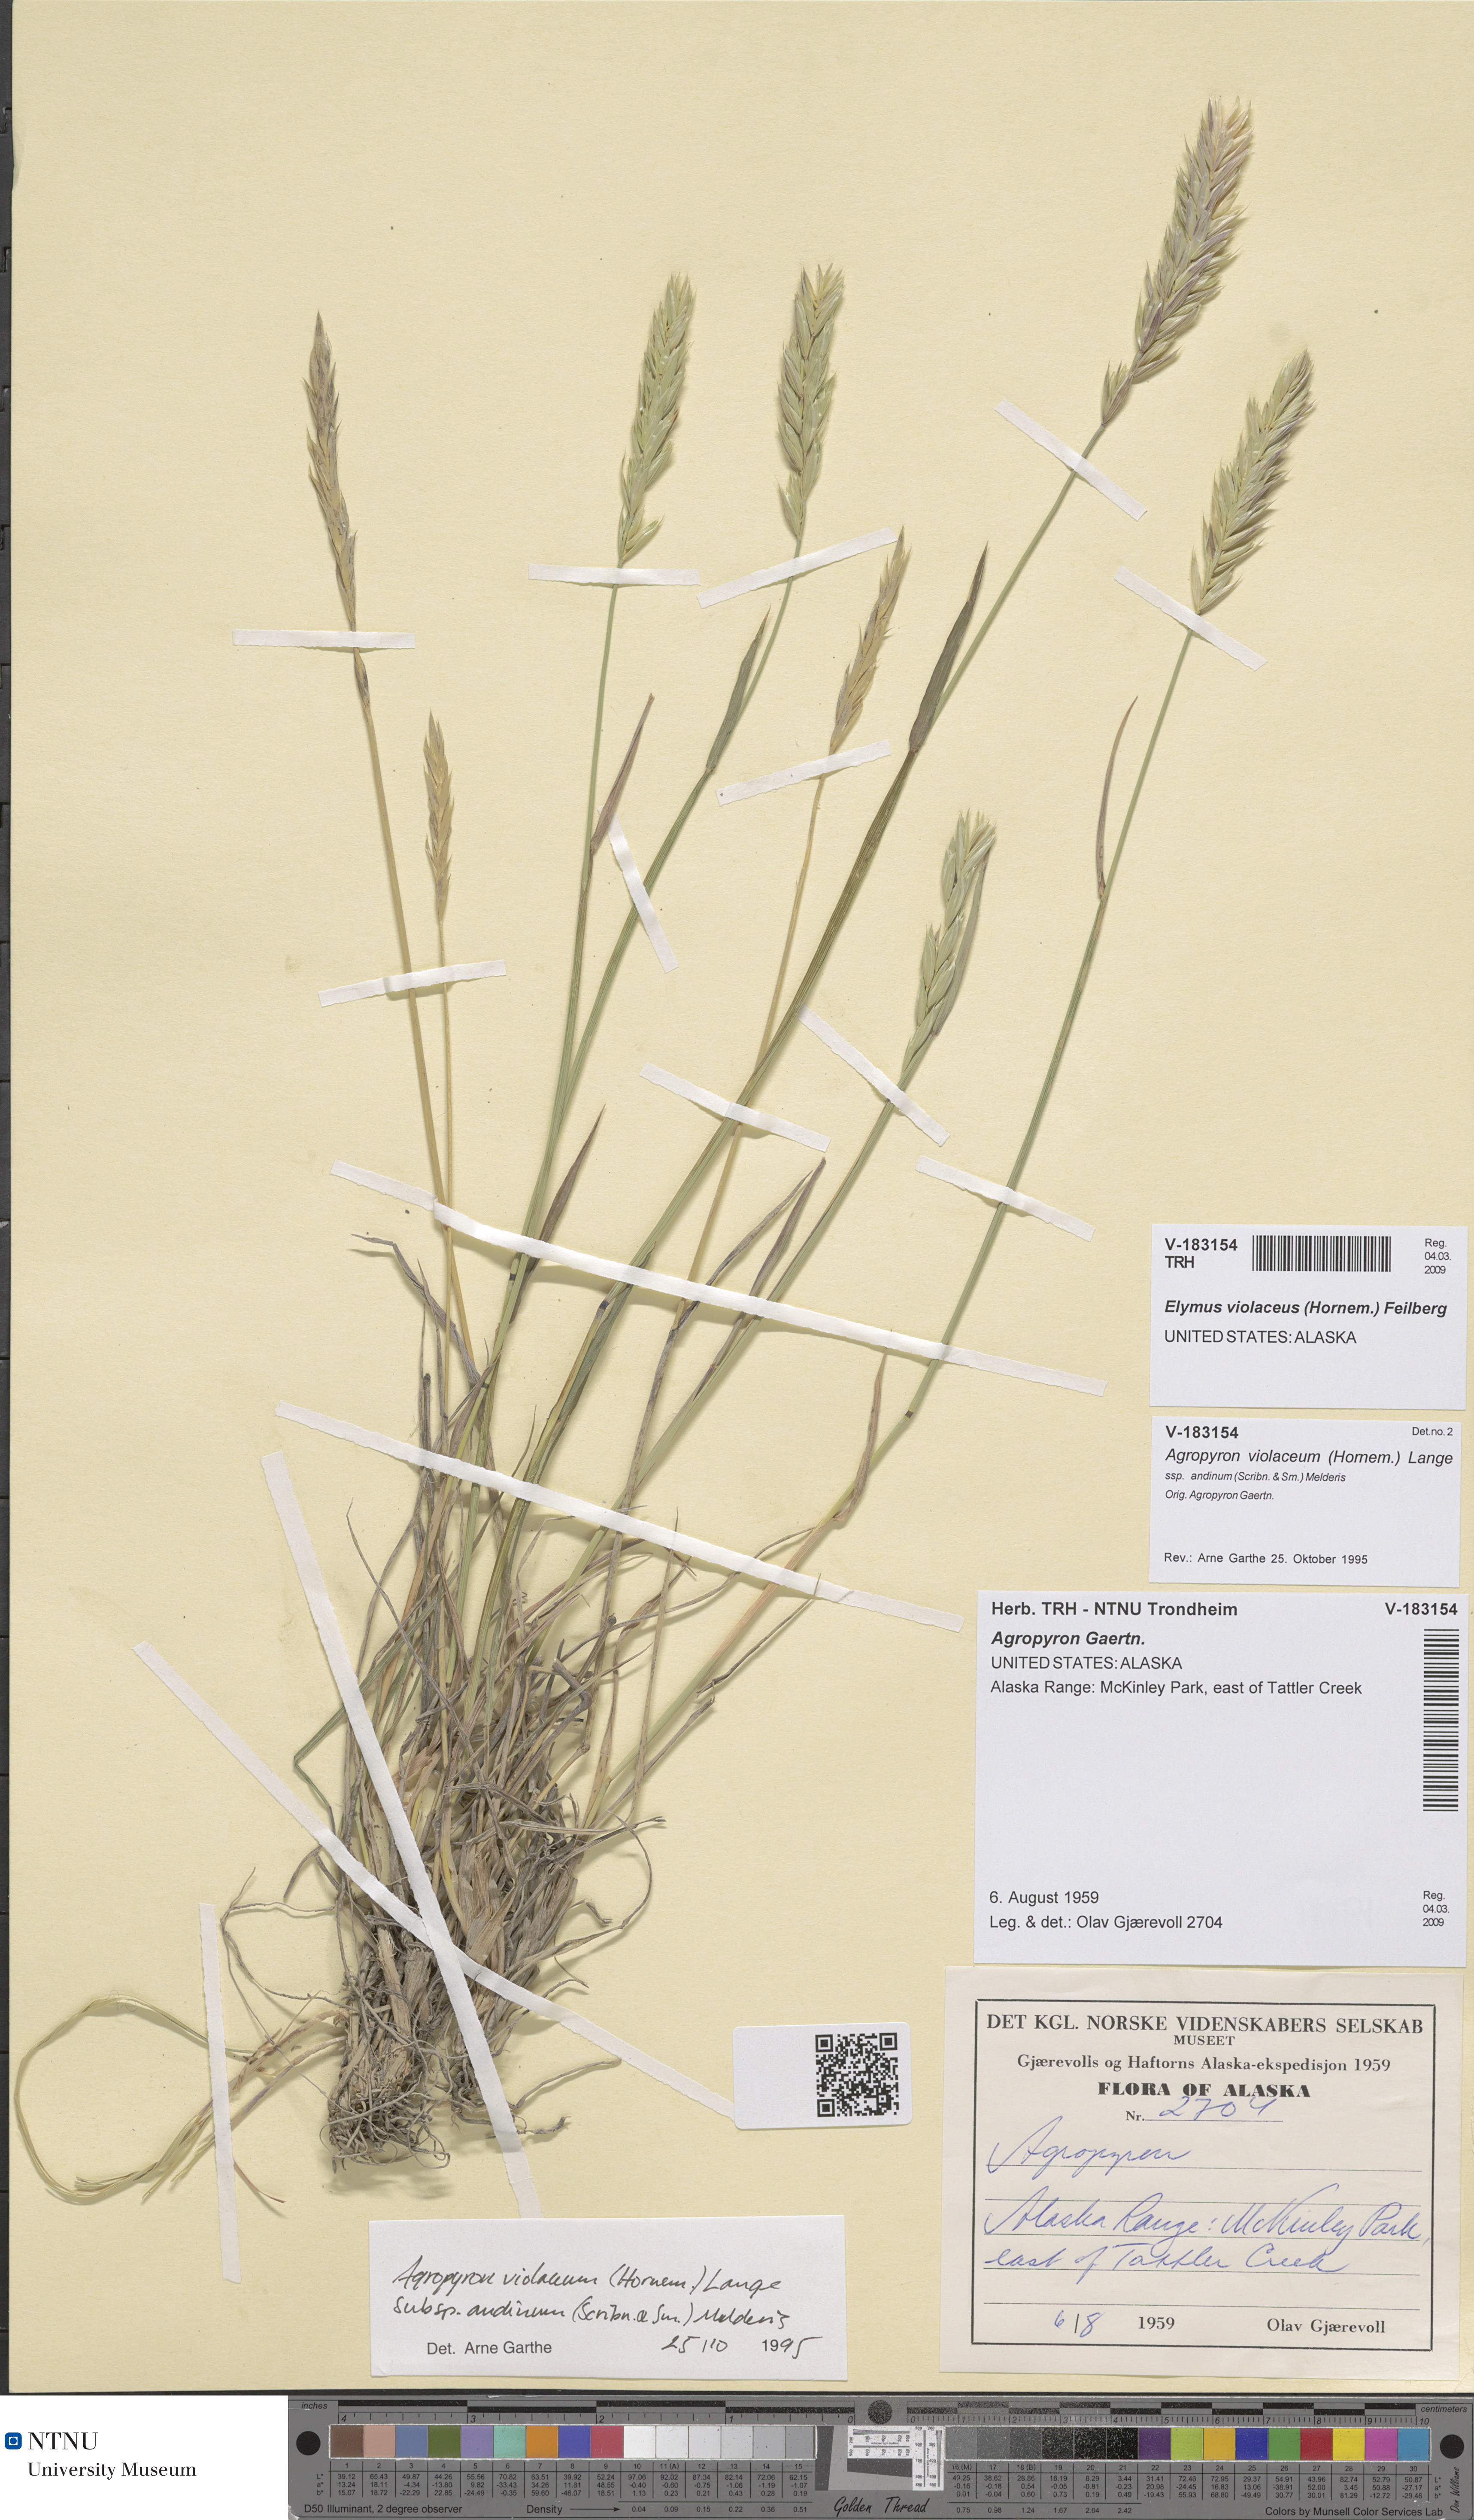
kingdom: Plantae
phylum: Tracheophyta
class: Liliopsida
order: Poales
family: Poaceae
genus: Elymus
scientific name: Elymus violaceus
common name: Arctic wheatgrass
